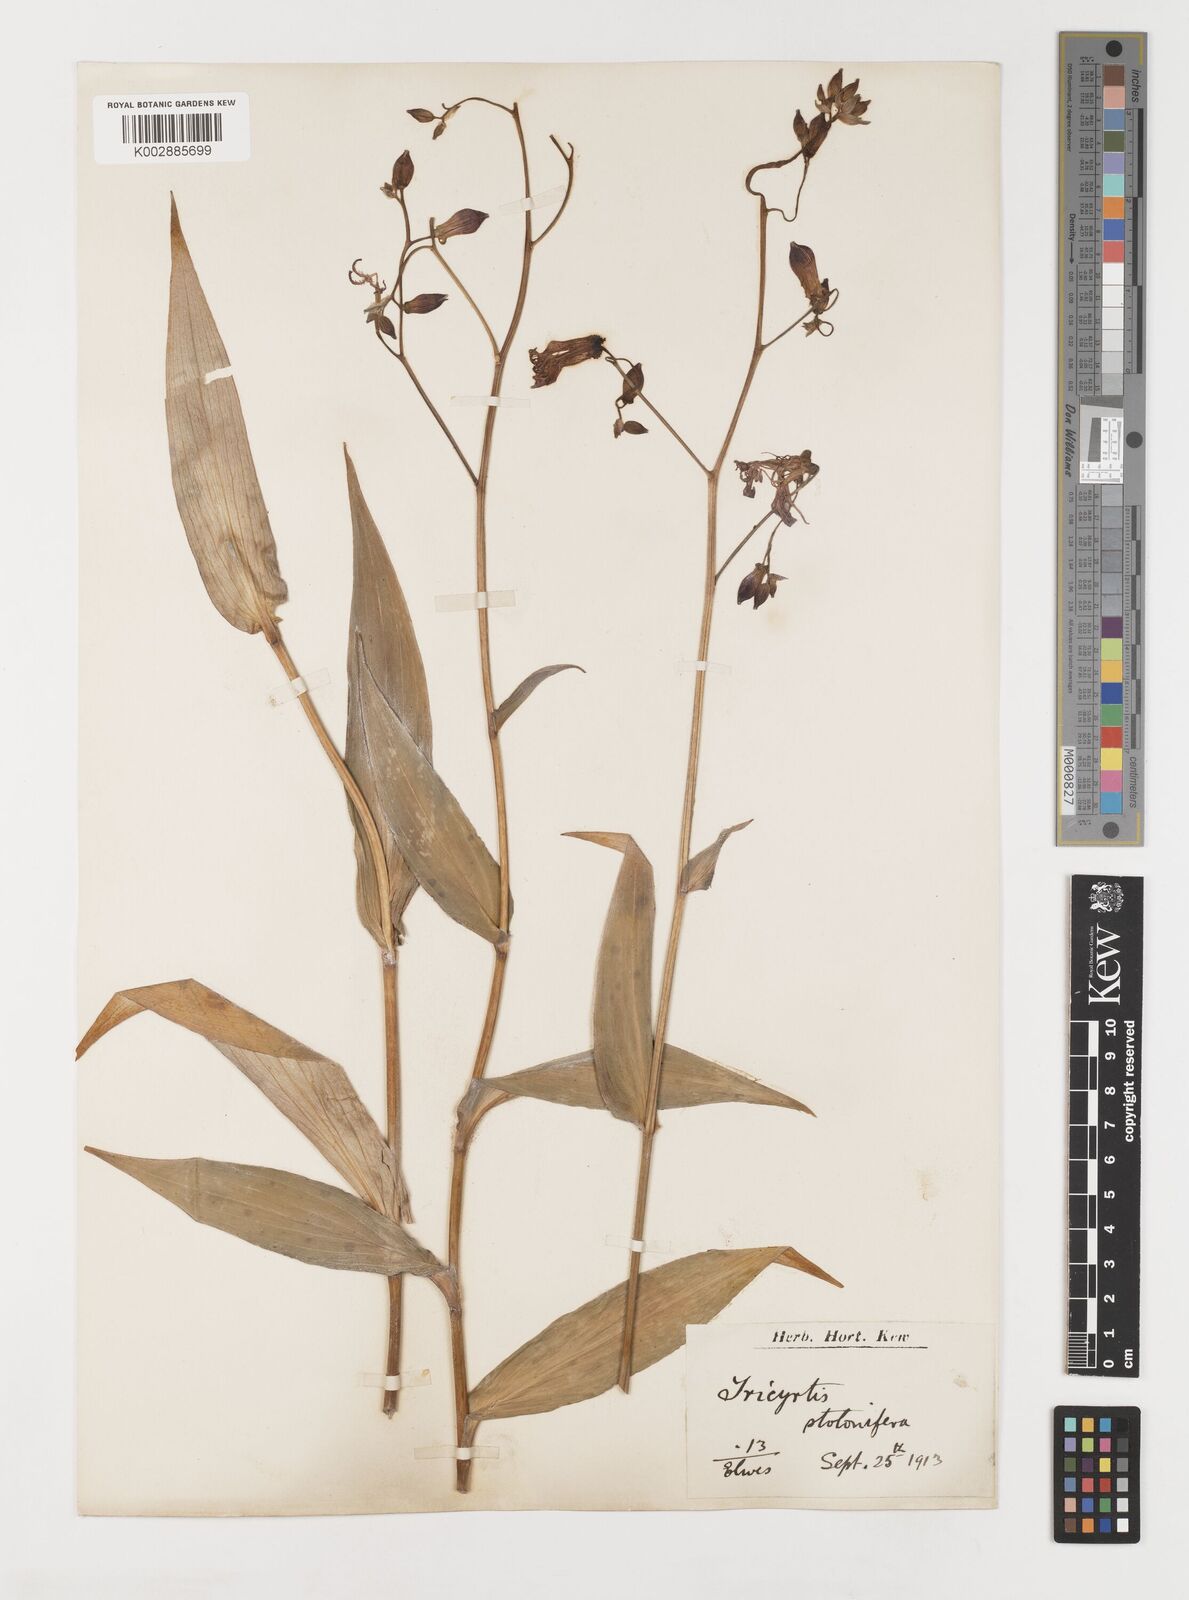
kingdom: Plantae
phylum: Tracheophyta
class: Liliopsida
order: Liliales
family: Liliaceae
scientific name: Liliaceae
